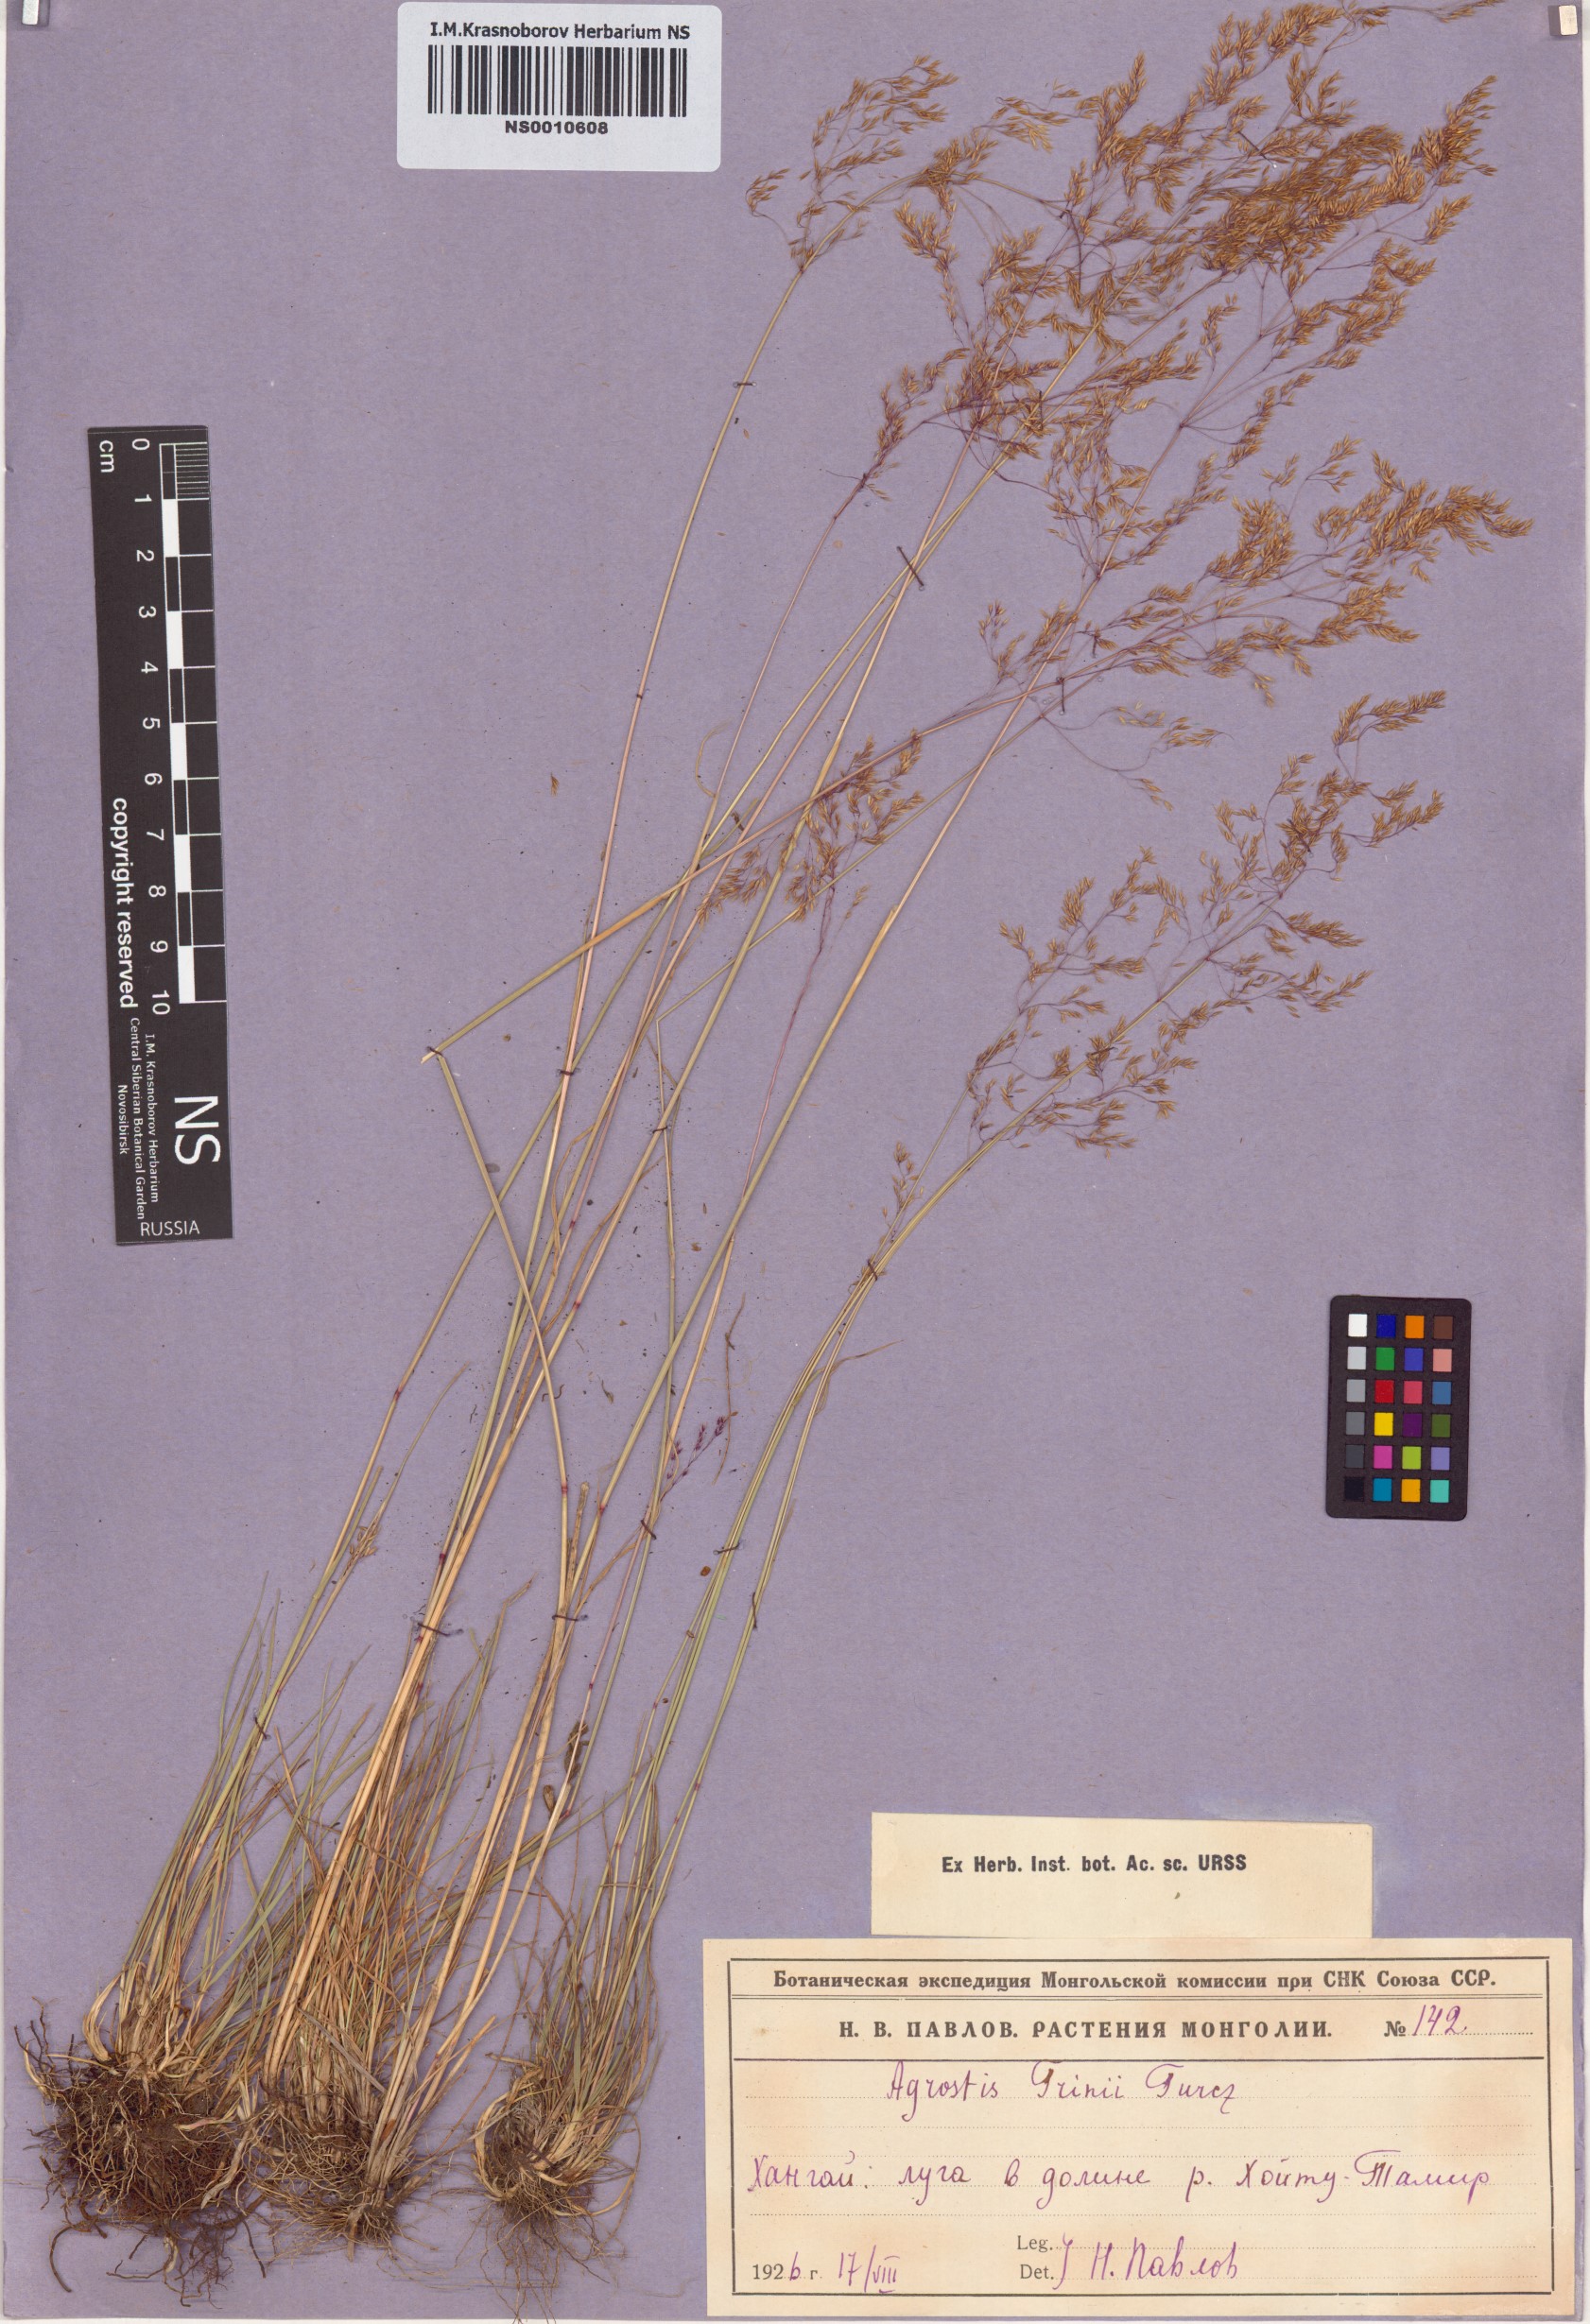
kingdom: Plantae
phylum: Tracheophyta
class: Liliopsida
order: Poales
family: Poaceae
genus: Agrostis
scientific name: Agrostis vinealis
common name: Brown bent
